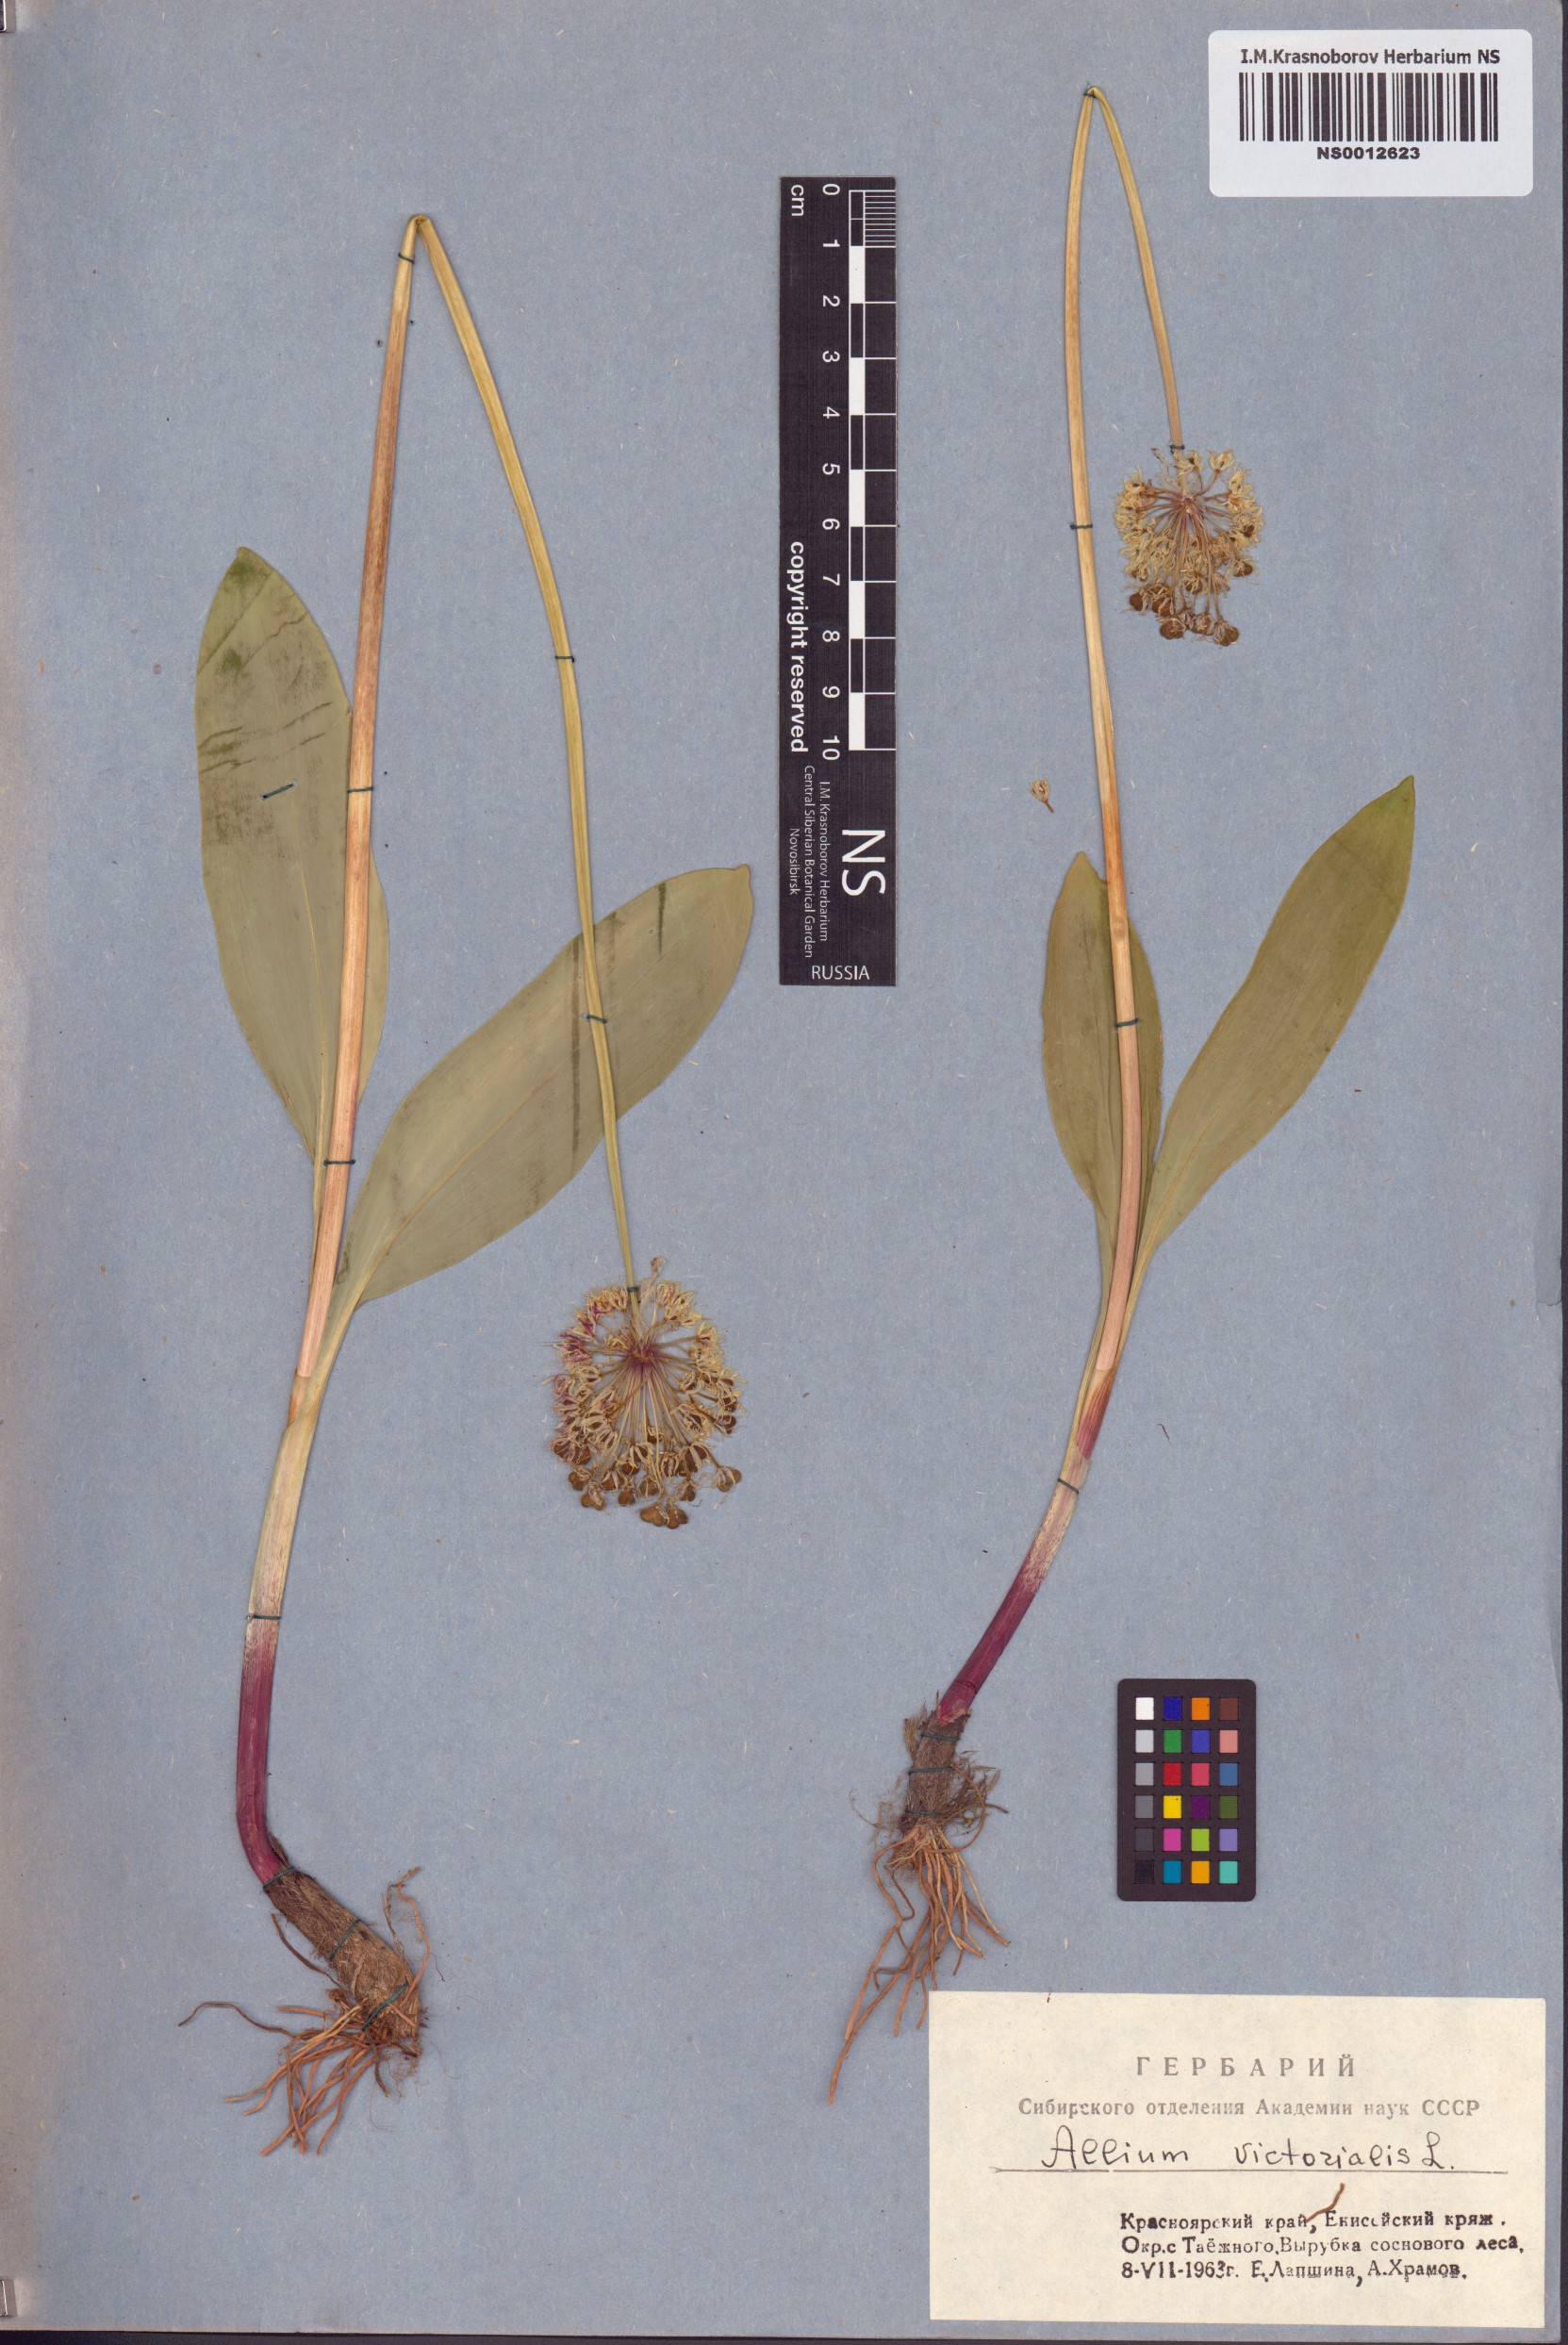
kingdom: Plantae
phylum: Tracheophyta
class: Liliopsida
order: Asparagales
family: Amaryllidaceae
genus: Allium
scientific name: Allium microdictyon
